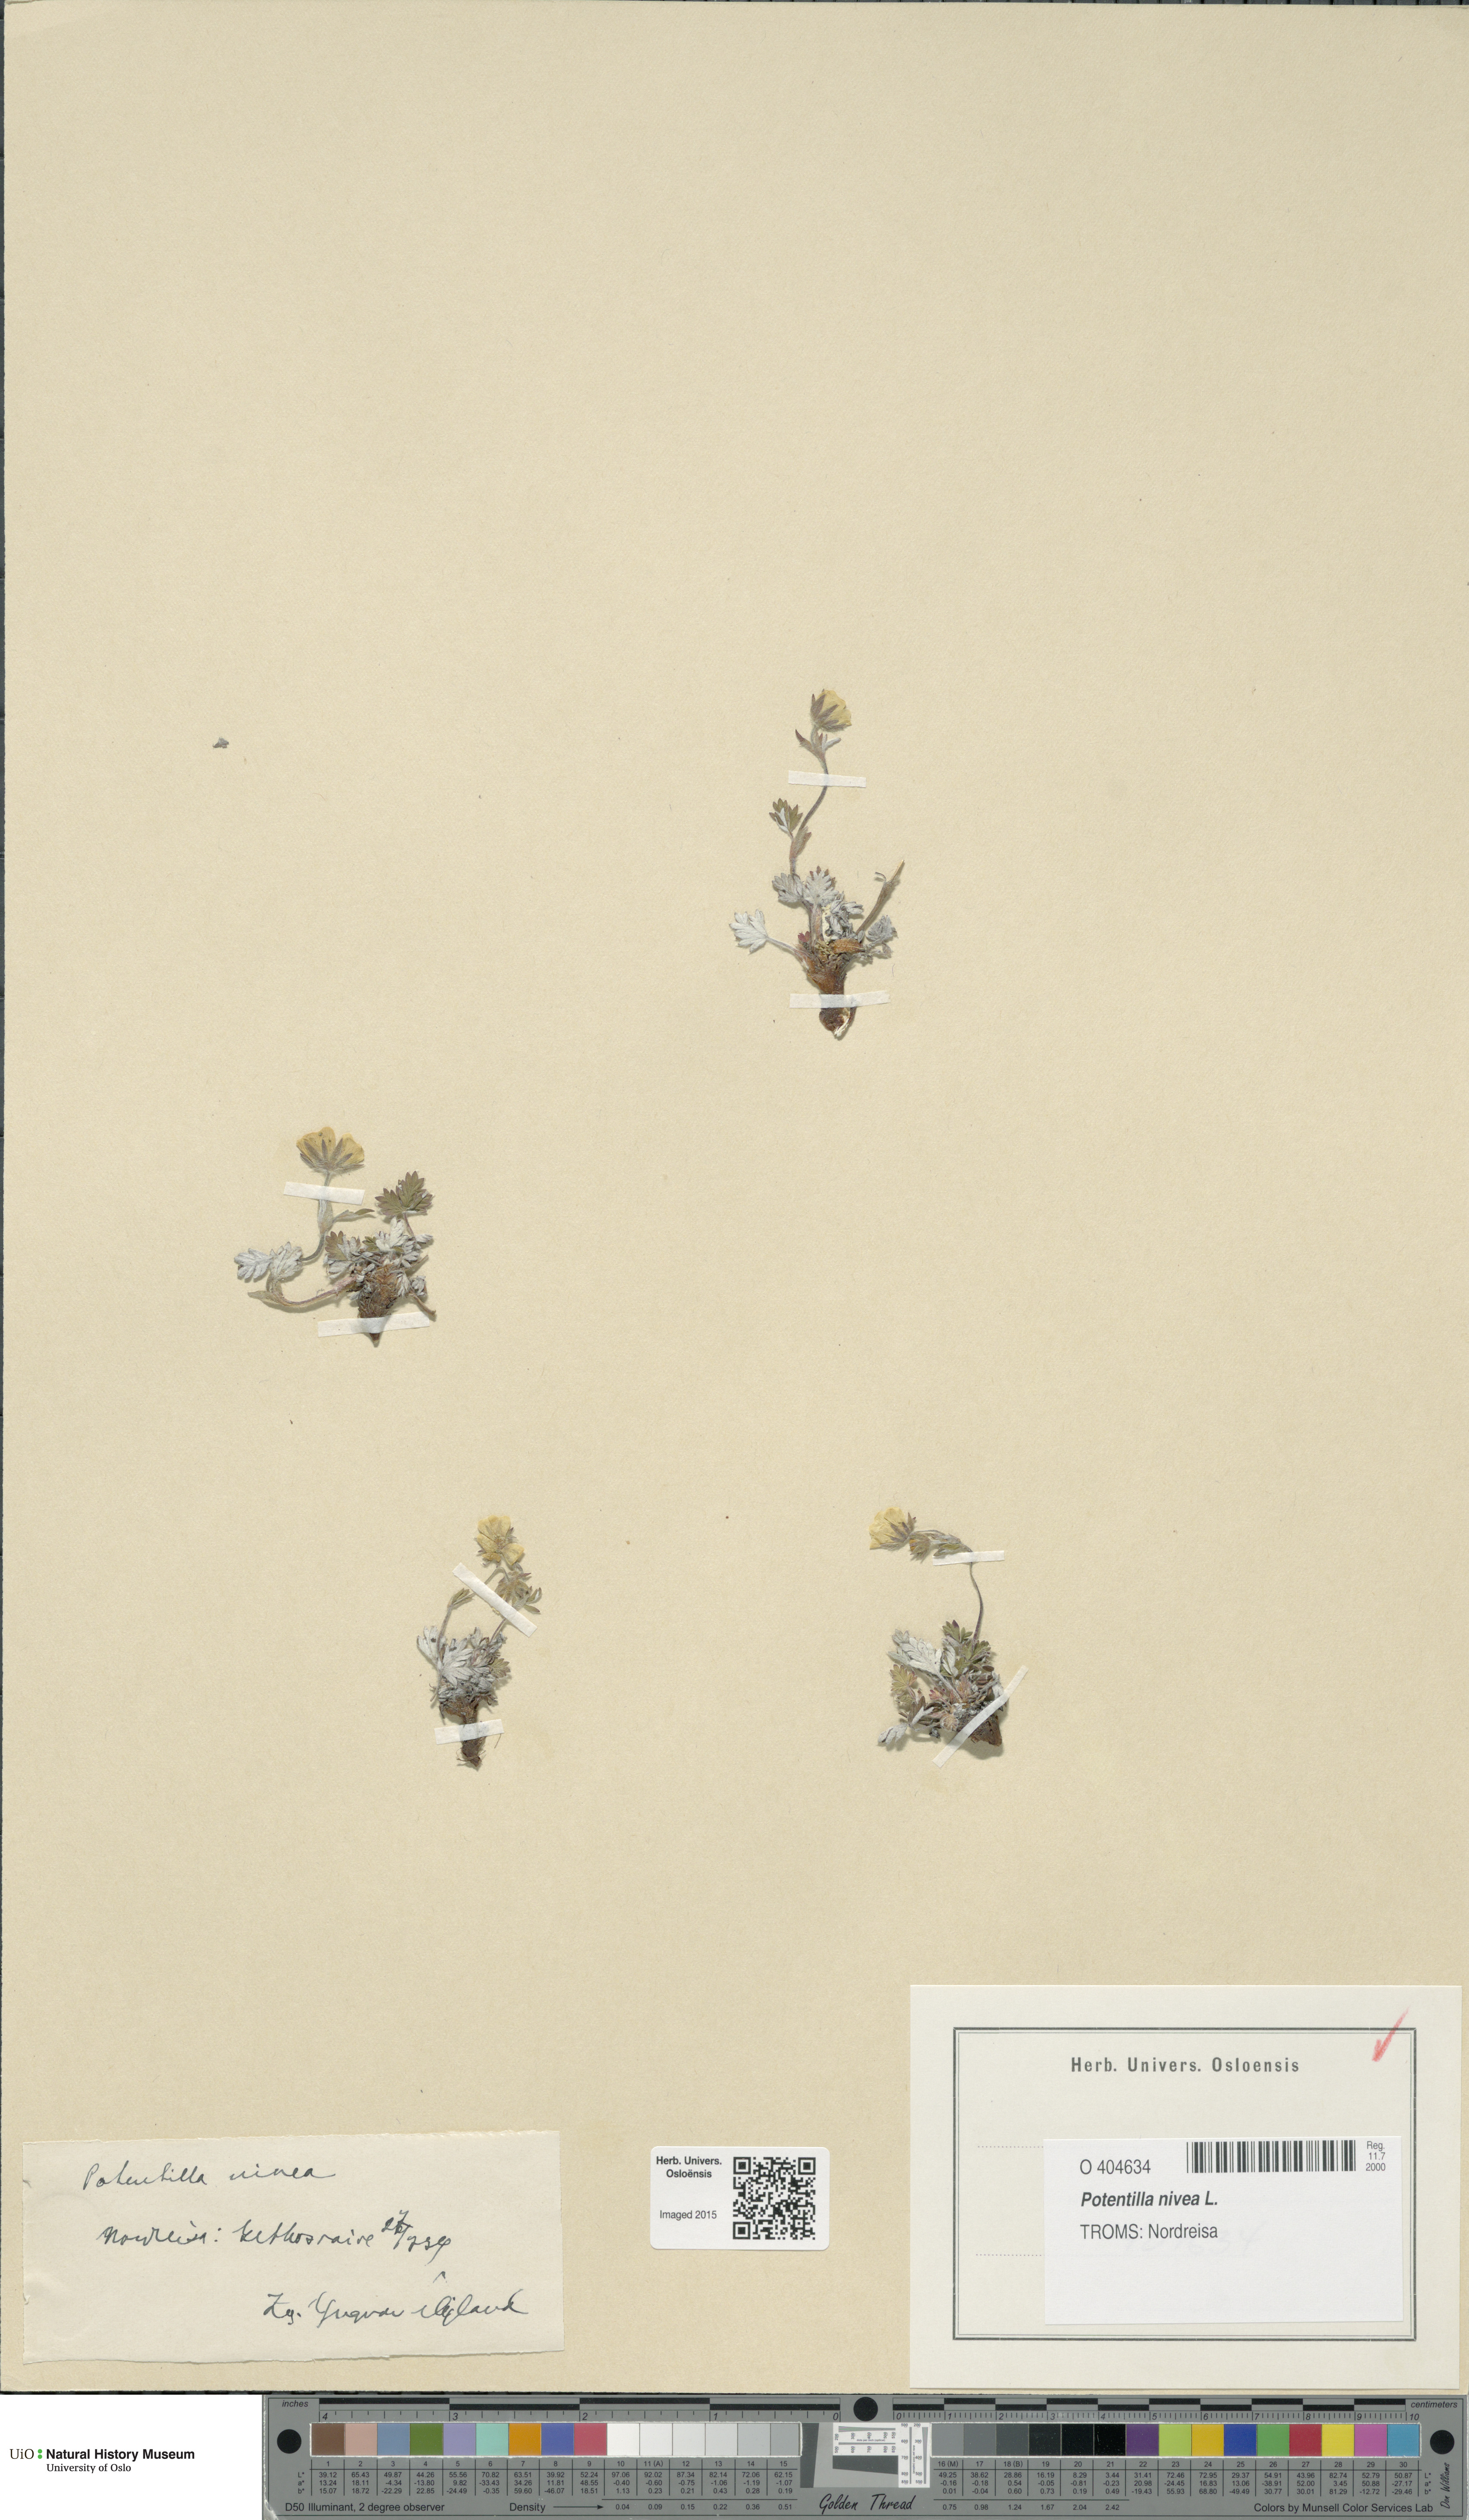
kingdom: Plantae
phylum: Tracheophyta
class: Magnoliopsida
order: Rosales
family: Rosaceae
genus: Potentilla
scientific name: Potentilla arenosa
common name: Bluff cinquefoil
